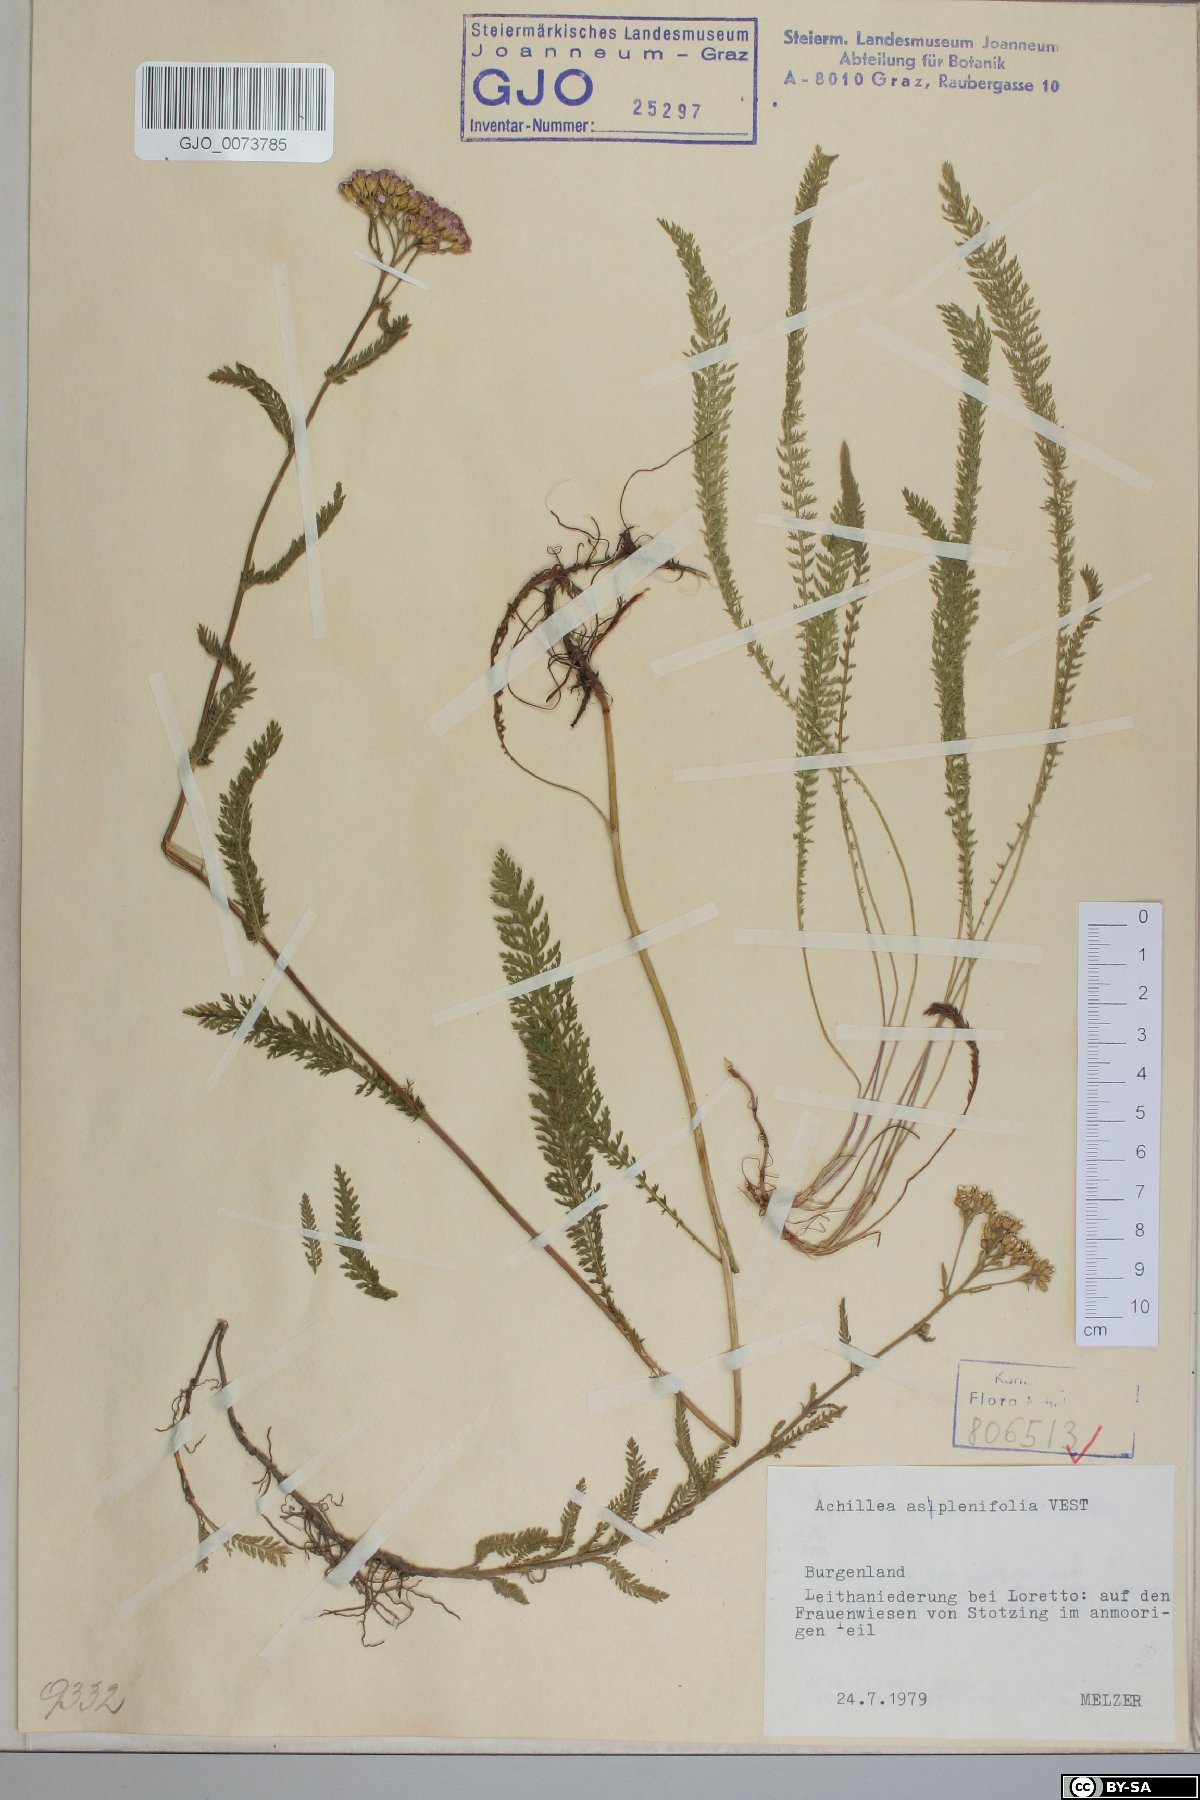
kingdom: Plantae
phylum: Tracheophyta
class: Magnoliopsida
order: Asterales
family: Asteraceae
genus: Achillea
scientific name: Achillea aspleniifolia
